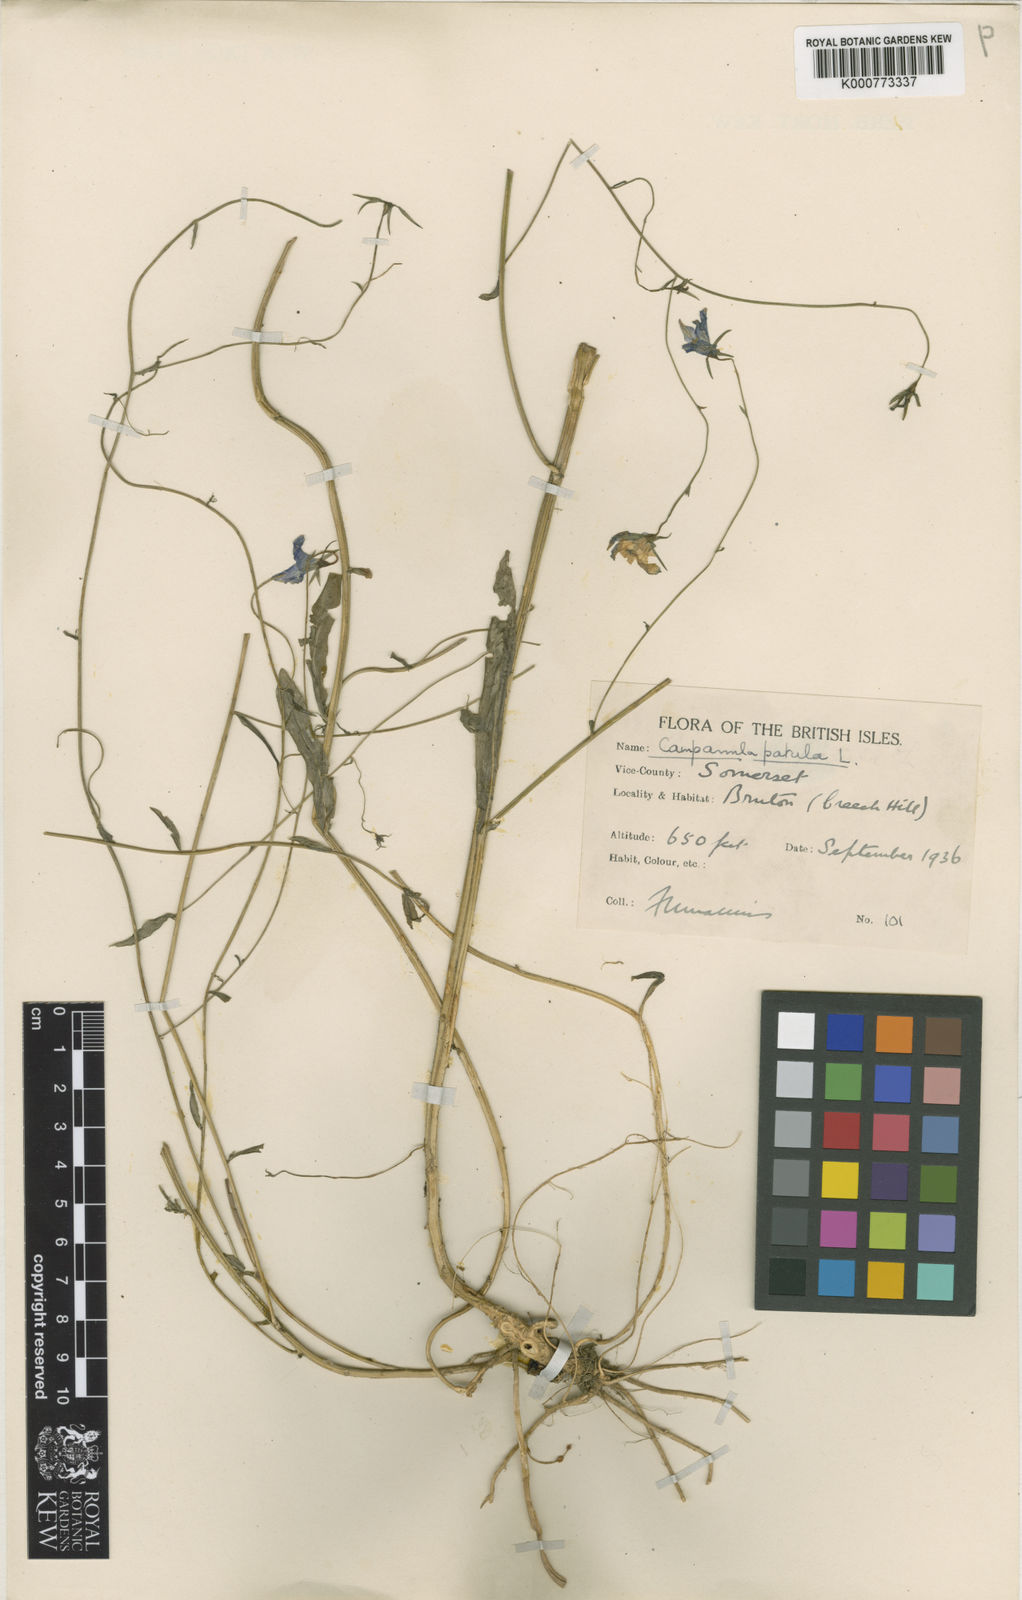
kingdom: Plantae
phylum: Tracheophyta
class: Magnoliopsida
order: Asterales
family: Campanulaceae
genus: Campanula
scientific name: Campanula patula
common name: Spreading bellflower
